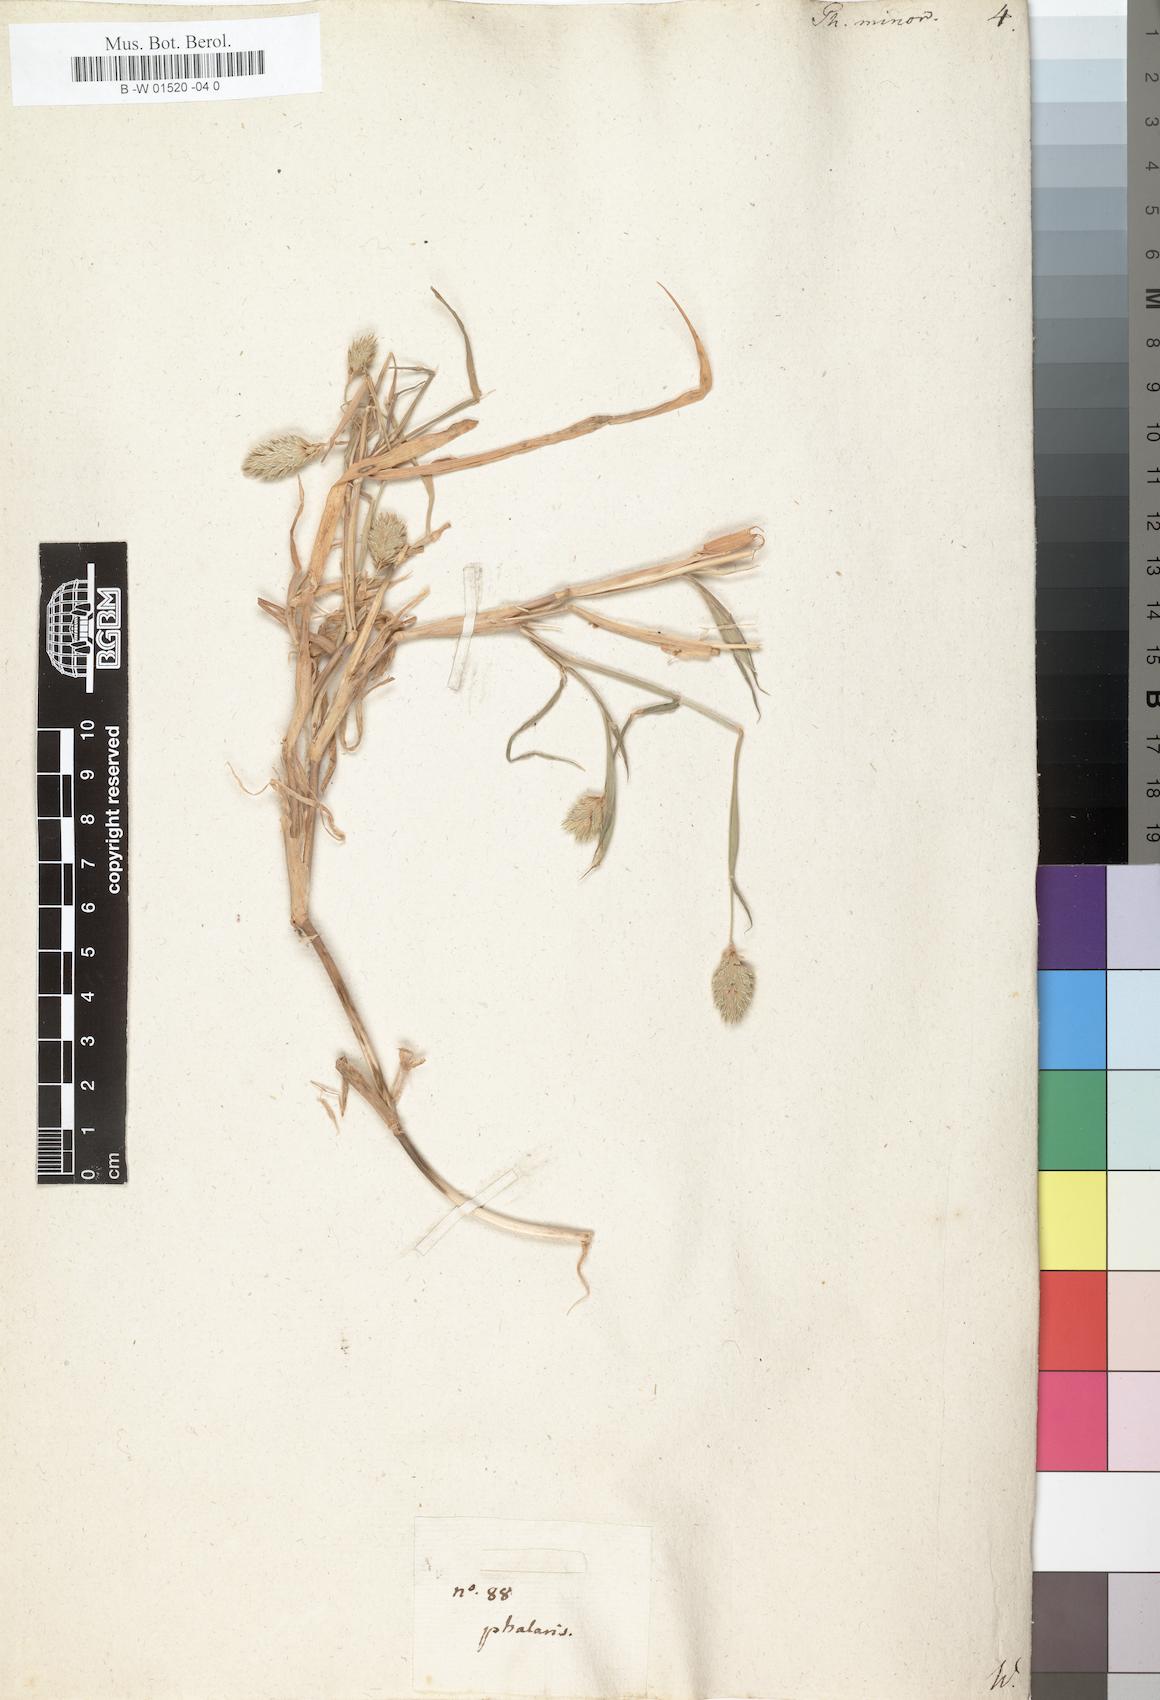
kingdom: Plantae
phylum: Tracheophyta
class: Liliopsida
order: Poales
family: Poaceae
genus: Phalaris
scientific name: Phalaris minor
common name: Littleseed canarygrass
